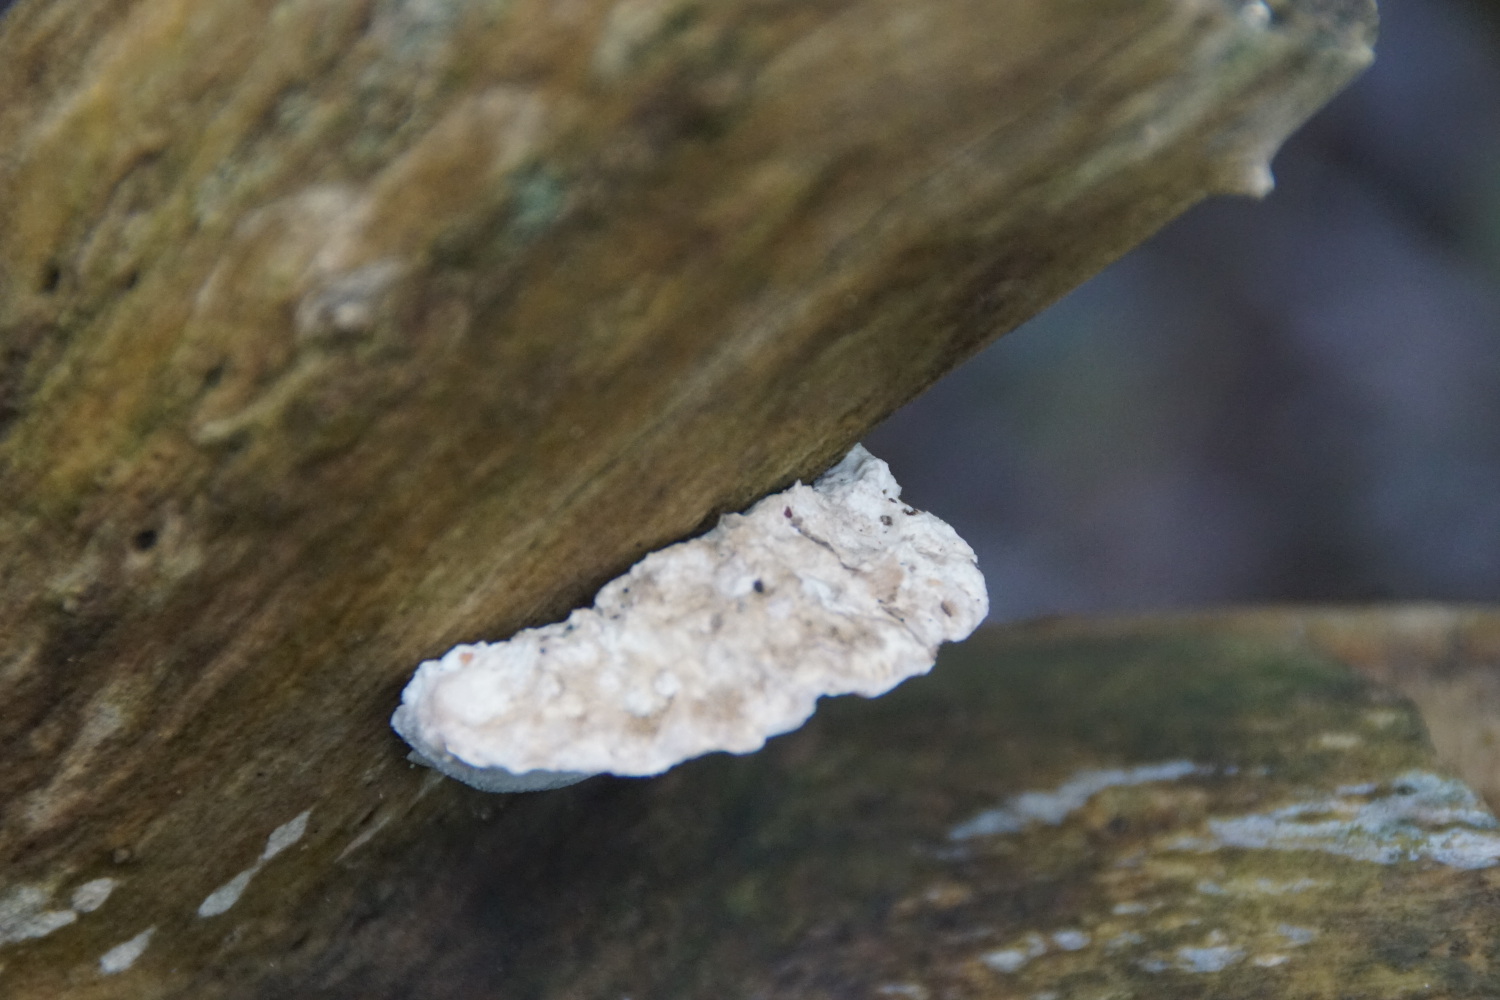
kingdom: Fungi
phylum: Basidiomycota
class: Agaricomycetes
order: Polyporales
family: Polyporaceae
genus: Cyanosporus
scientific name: Cyanosporus alni
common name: blegblå kødporesvamp
